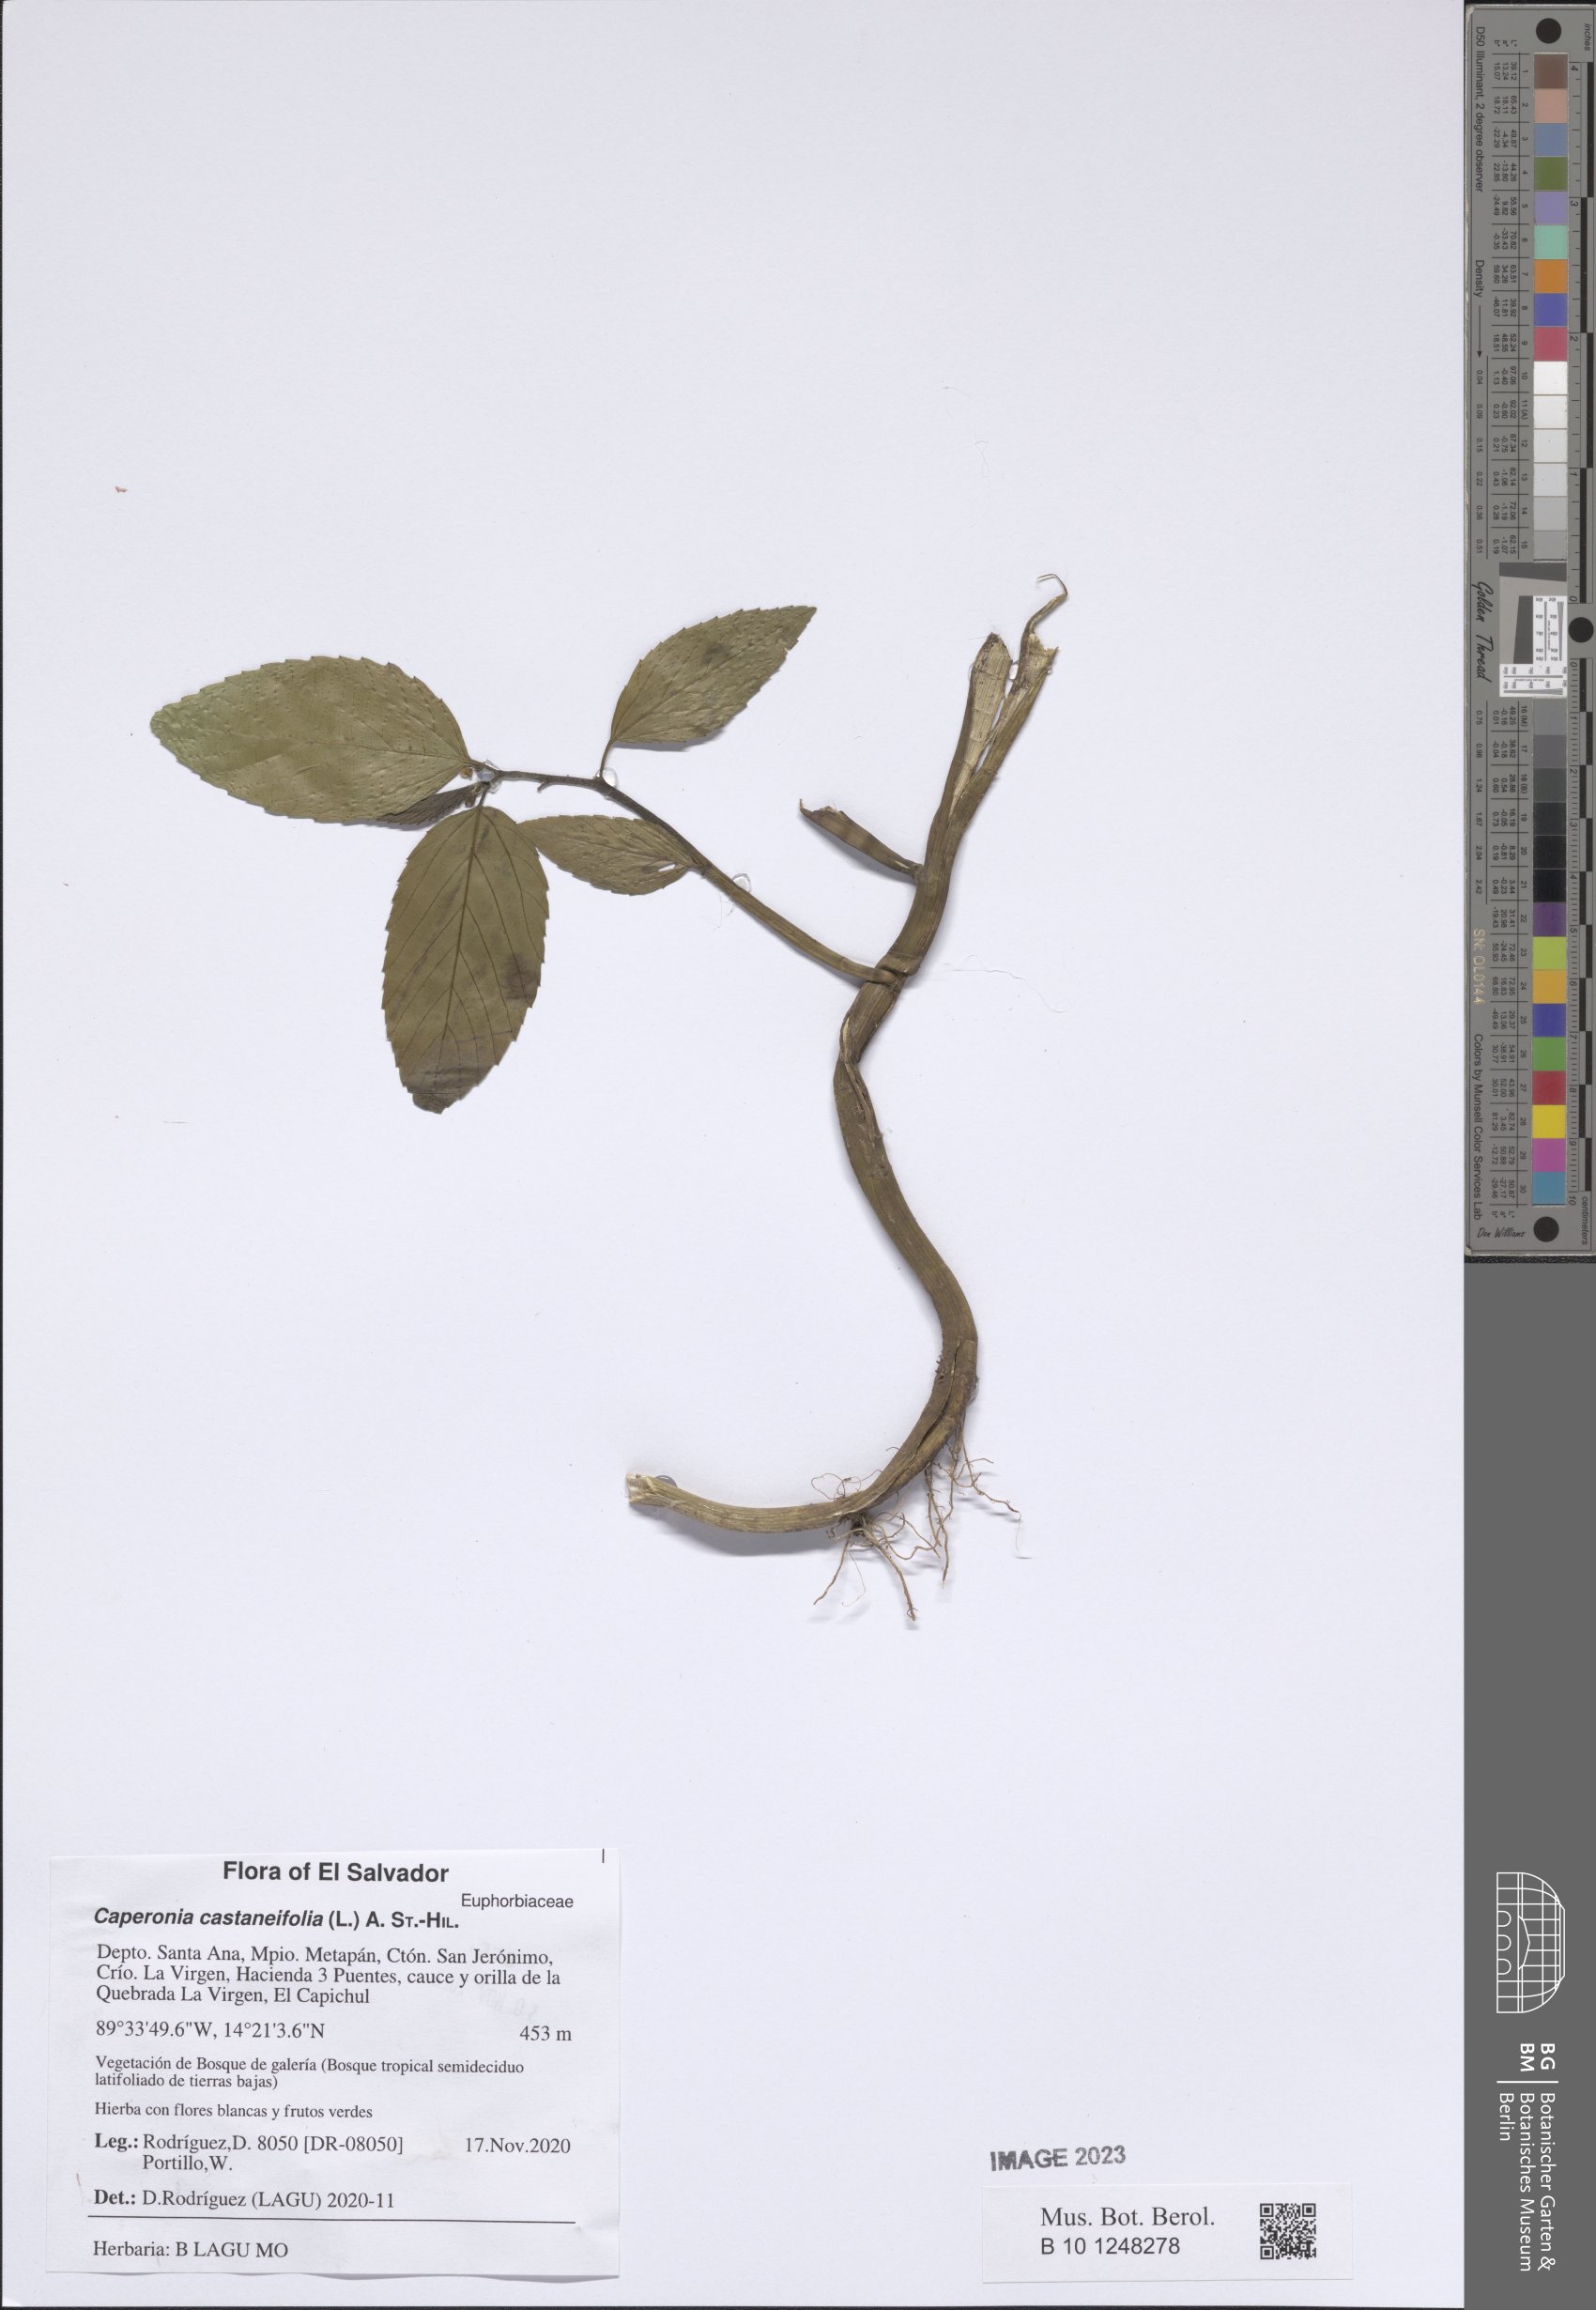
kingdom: Plantae
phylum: Tracheophyta
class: Magnoliopsida
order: Malpighiales
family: Euphorbiaceae
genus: Caperonia
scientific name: Caperonia castaneifolia
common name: Chestnutleaf false croton
